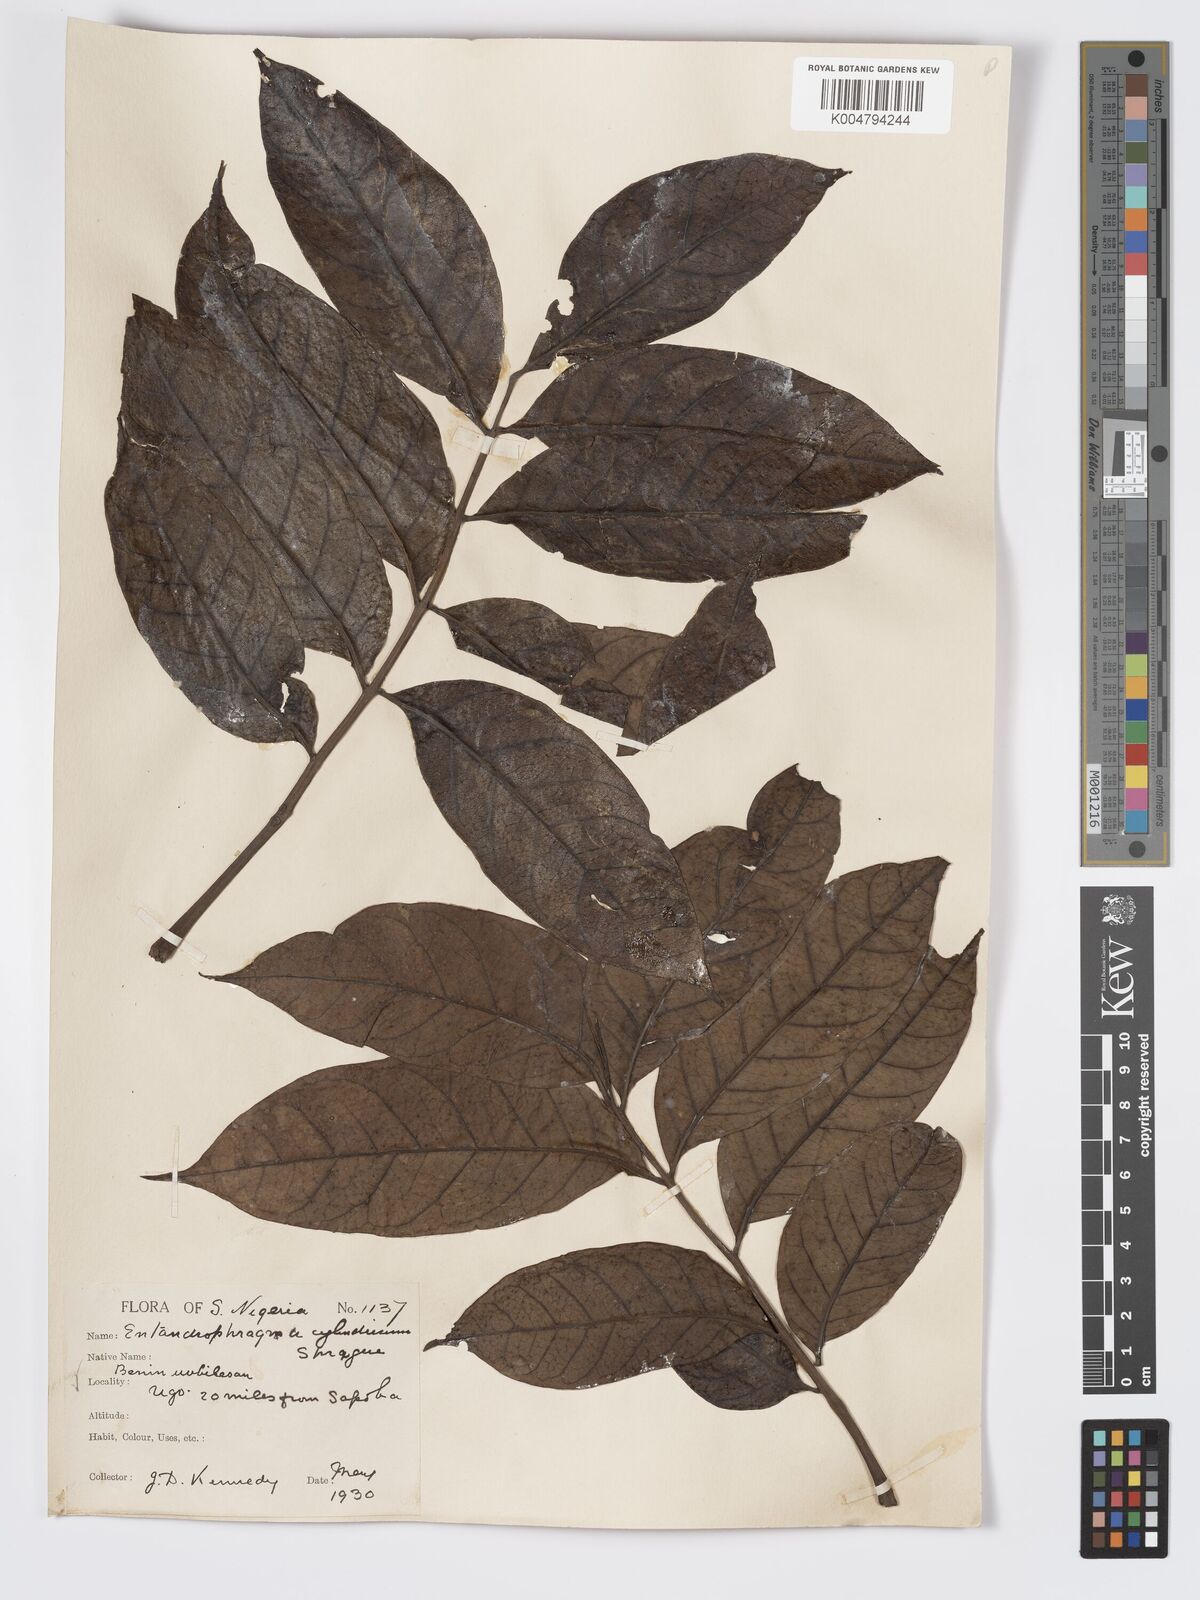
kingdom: Plantae
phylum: Tracheophyta
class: Magnoliopsida
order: Sapindales
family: Meliaceae
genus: Entandrophragma
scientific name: Entandrophragma cylindricum
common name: Sapele
